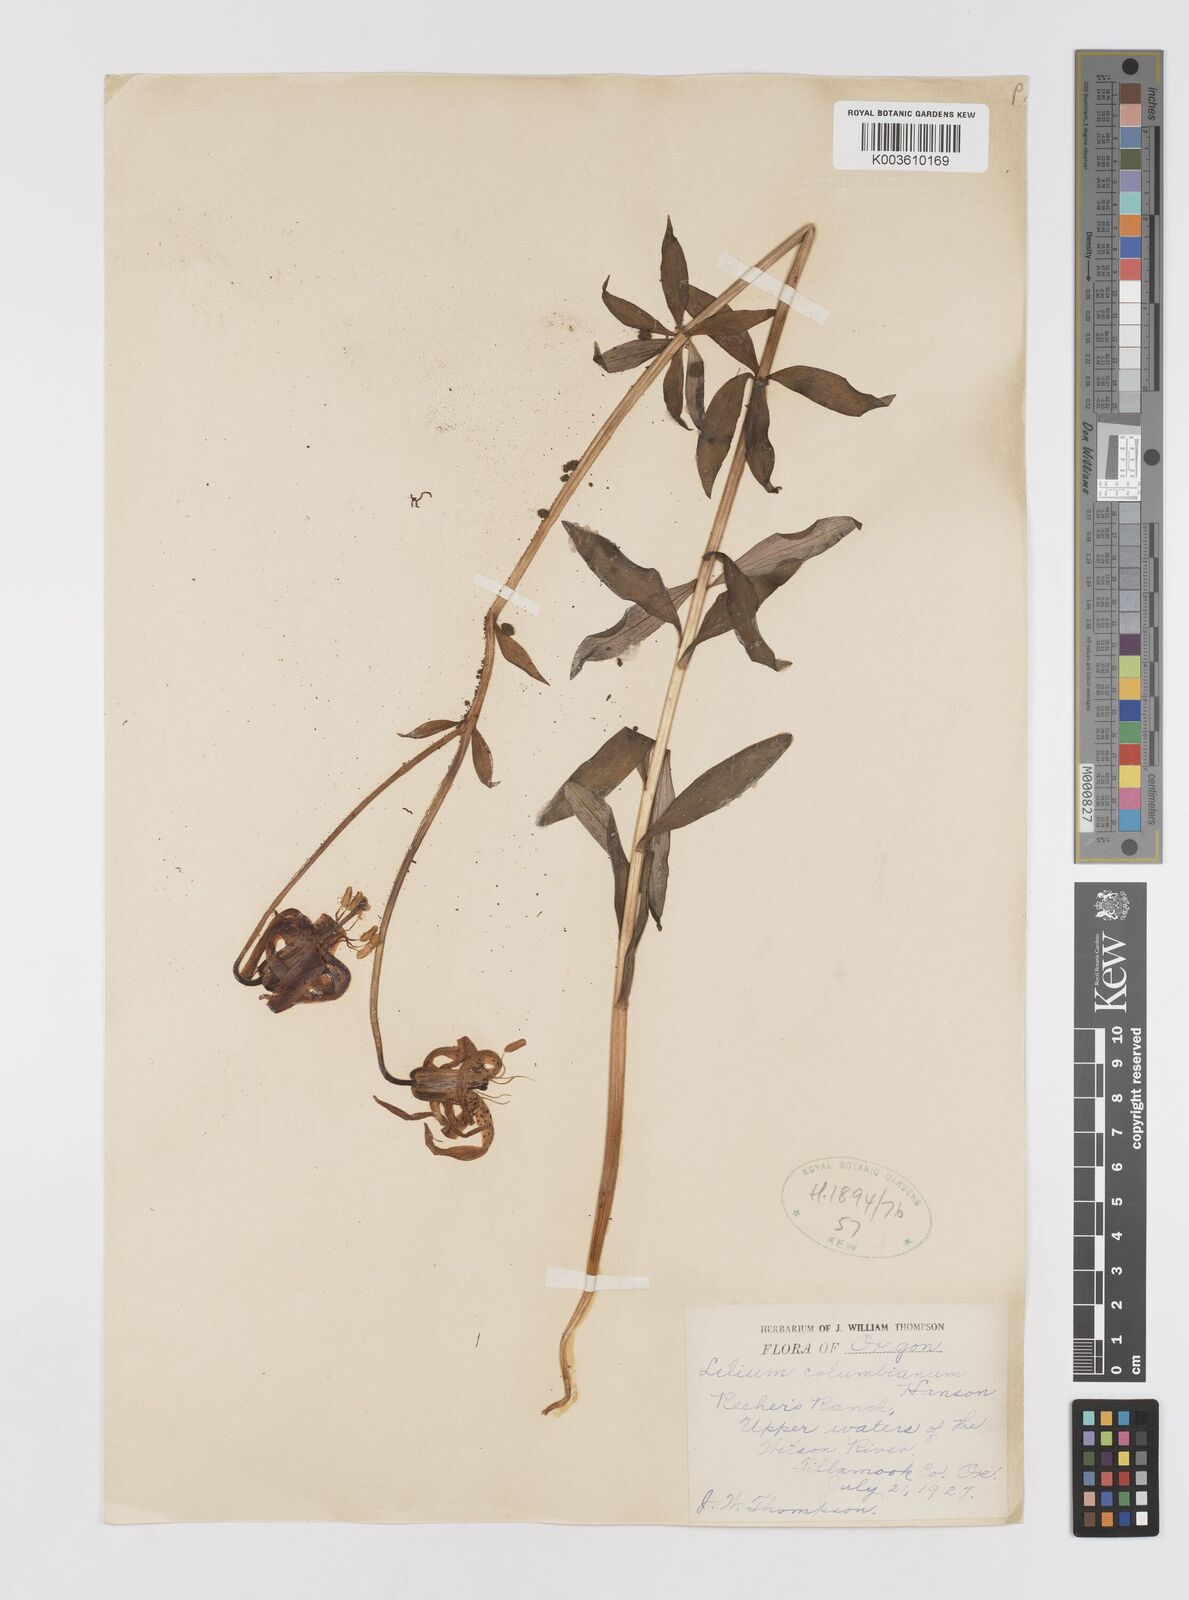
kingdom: Plantae
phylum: Tracheophyta
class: Liliopsida
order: Liliales
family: Liliaceae
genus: Lilium
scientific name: Lilium
